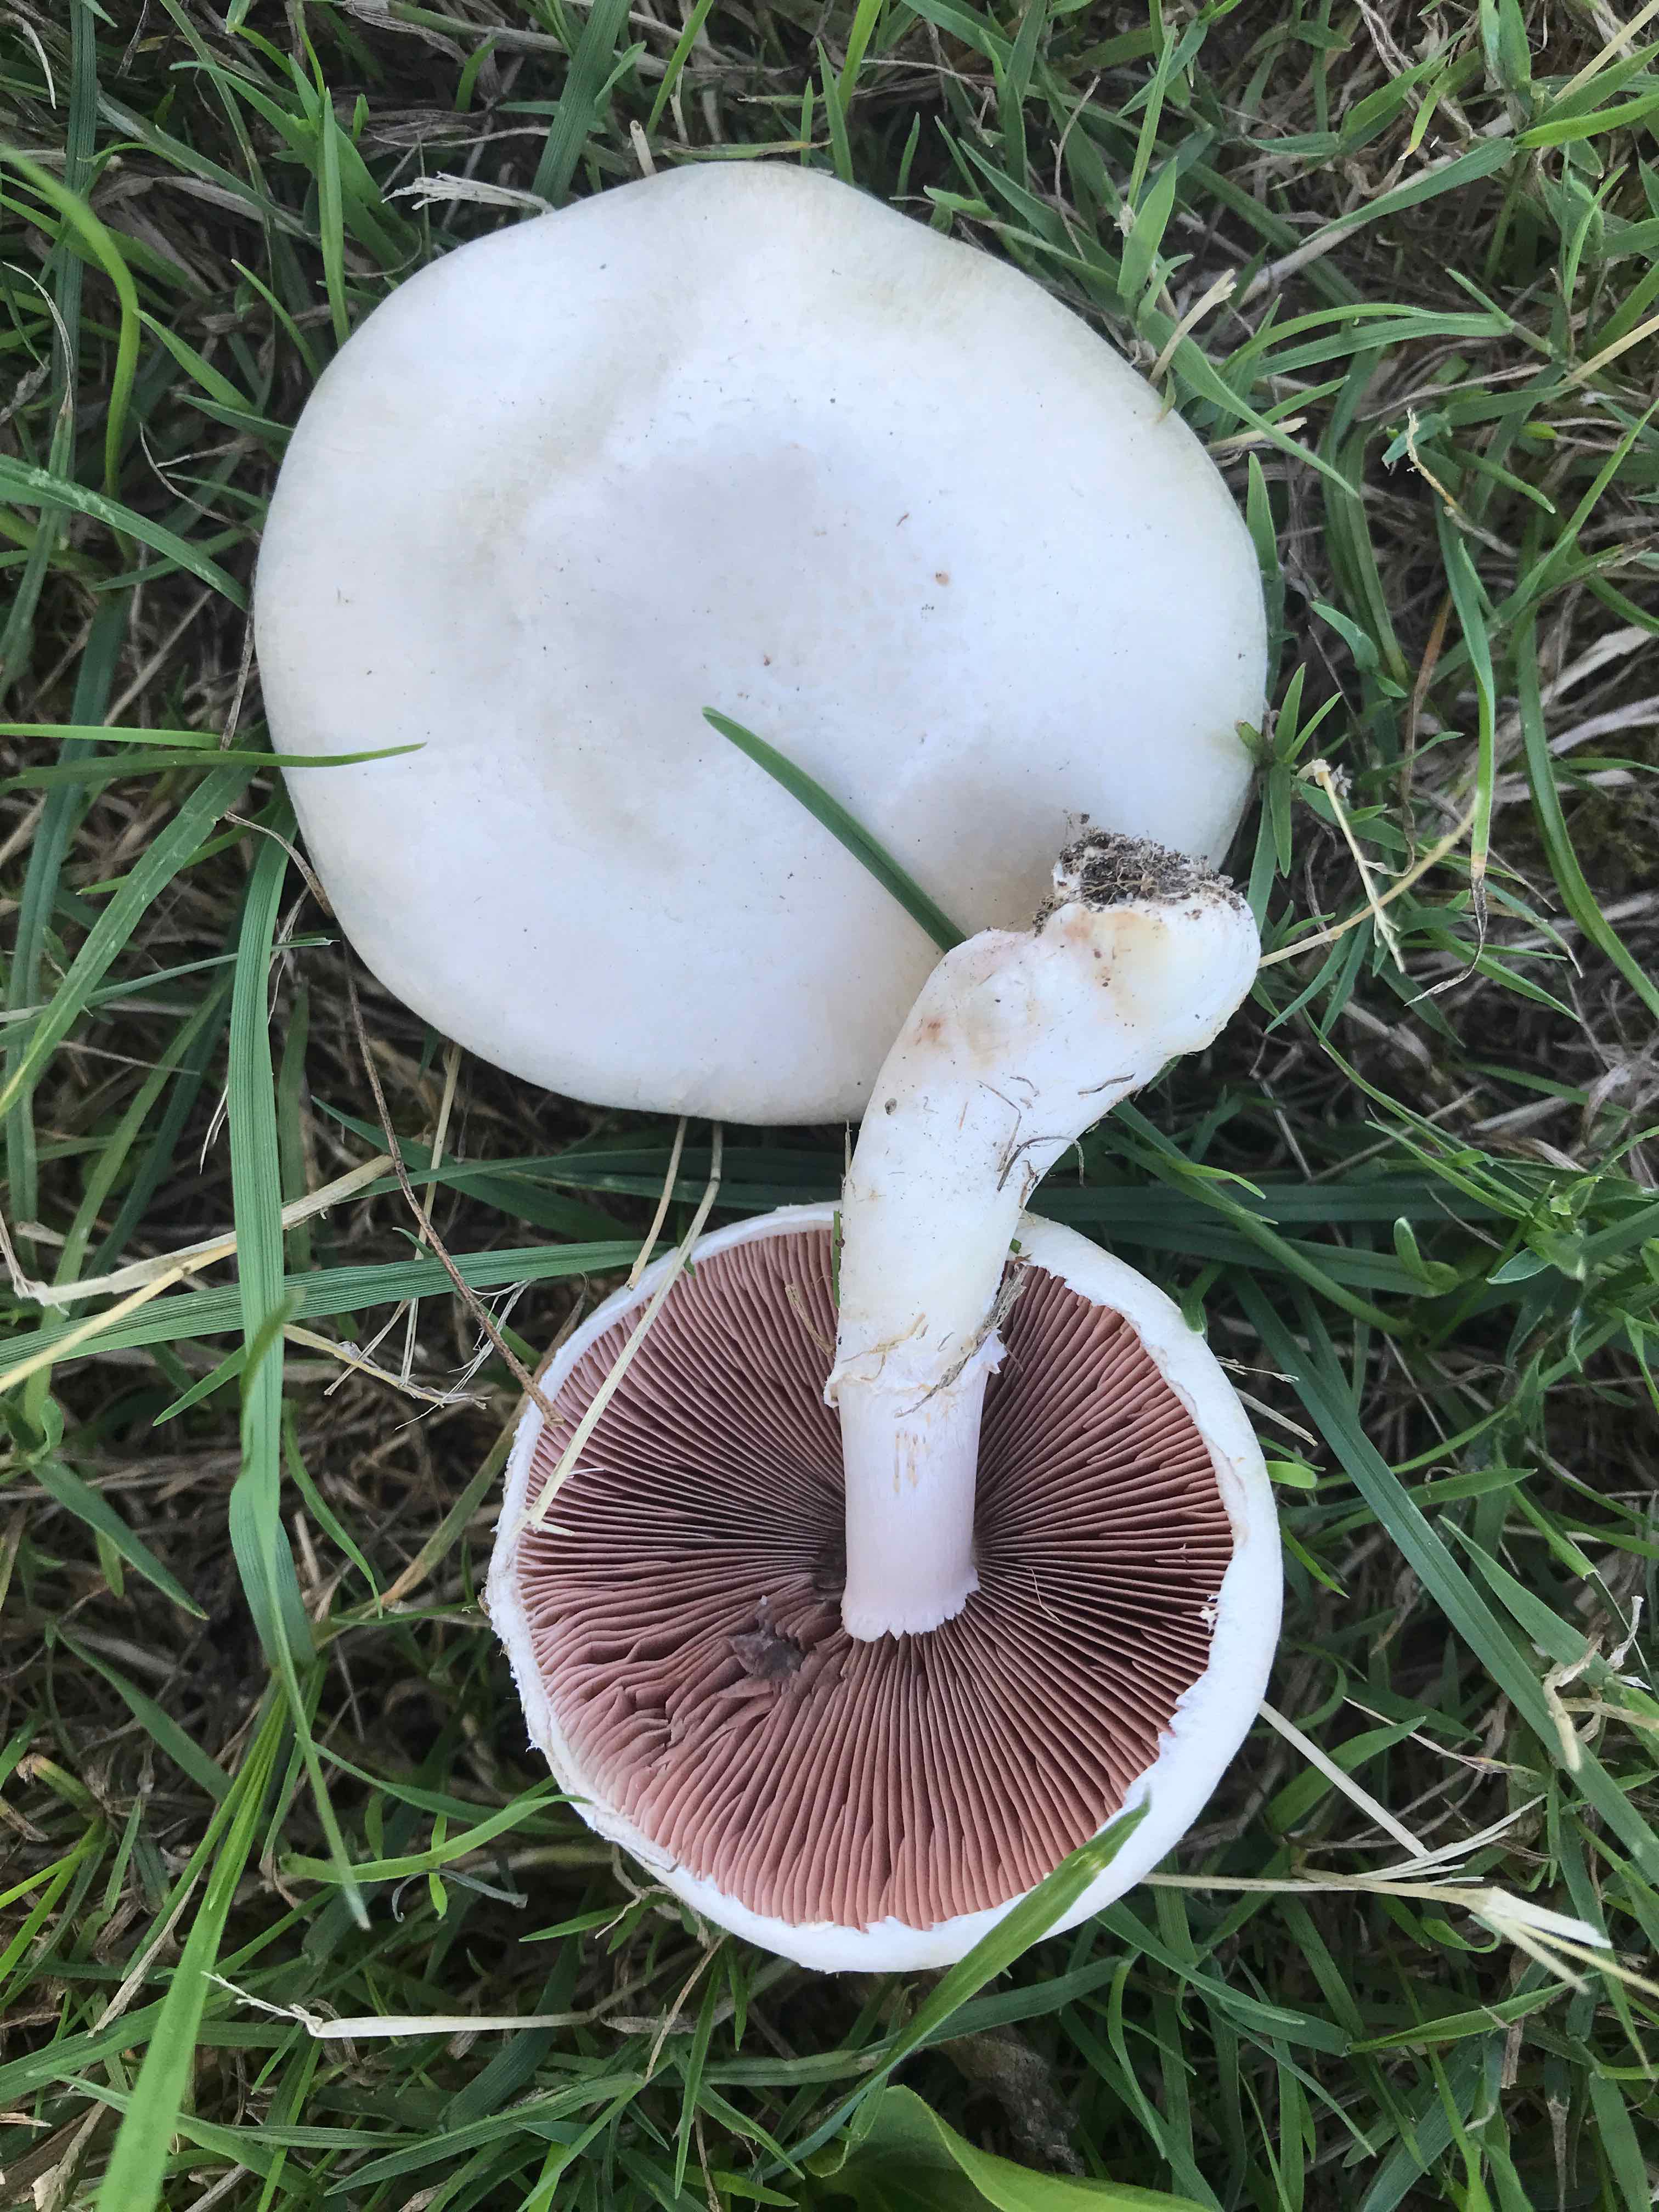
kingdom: Fungi
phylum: Basidiomycota
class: Agaricomycetes
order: Agaricales
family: Agaricaceae
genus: Agaricus
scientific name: Agaricus campestris
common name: mark-champignon
